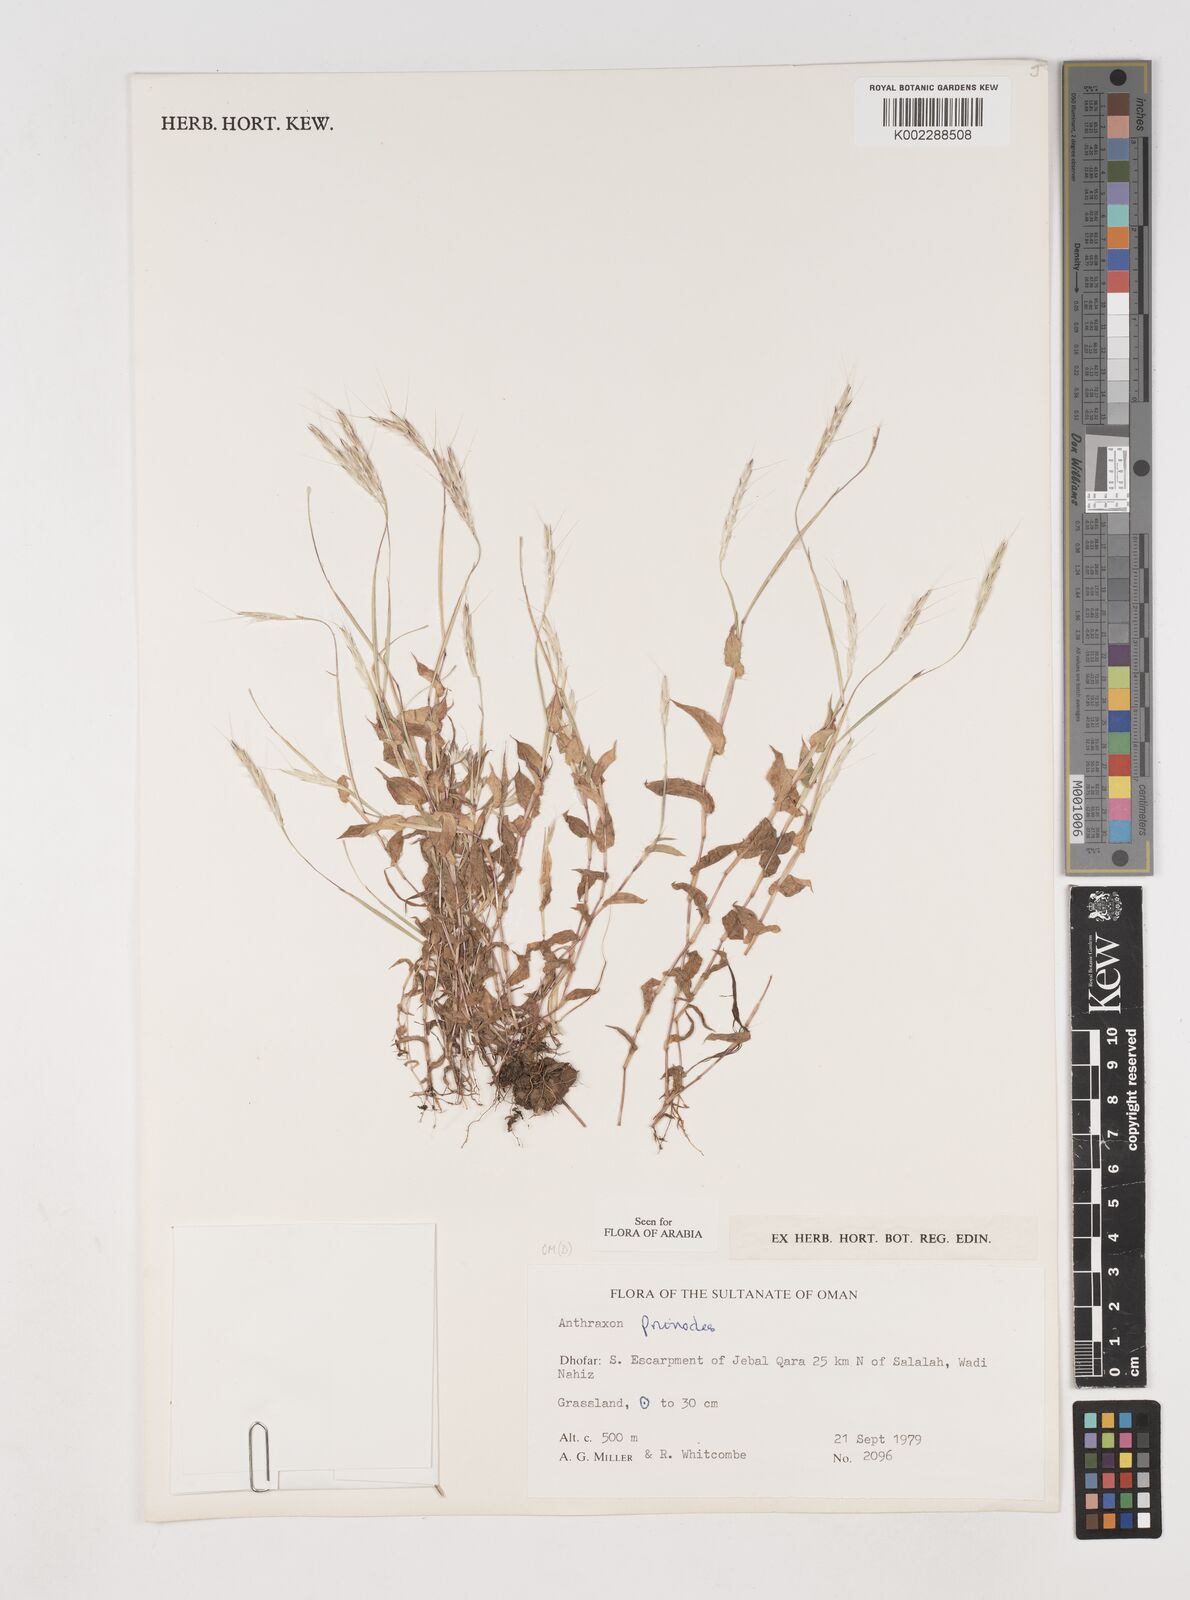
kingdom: Plantae
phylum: Tracheophyta
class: Liliopsida
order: Poales
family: Poaceae
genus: Arthraxon
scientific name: Arthraxon prionodes
